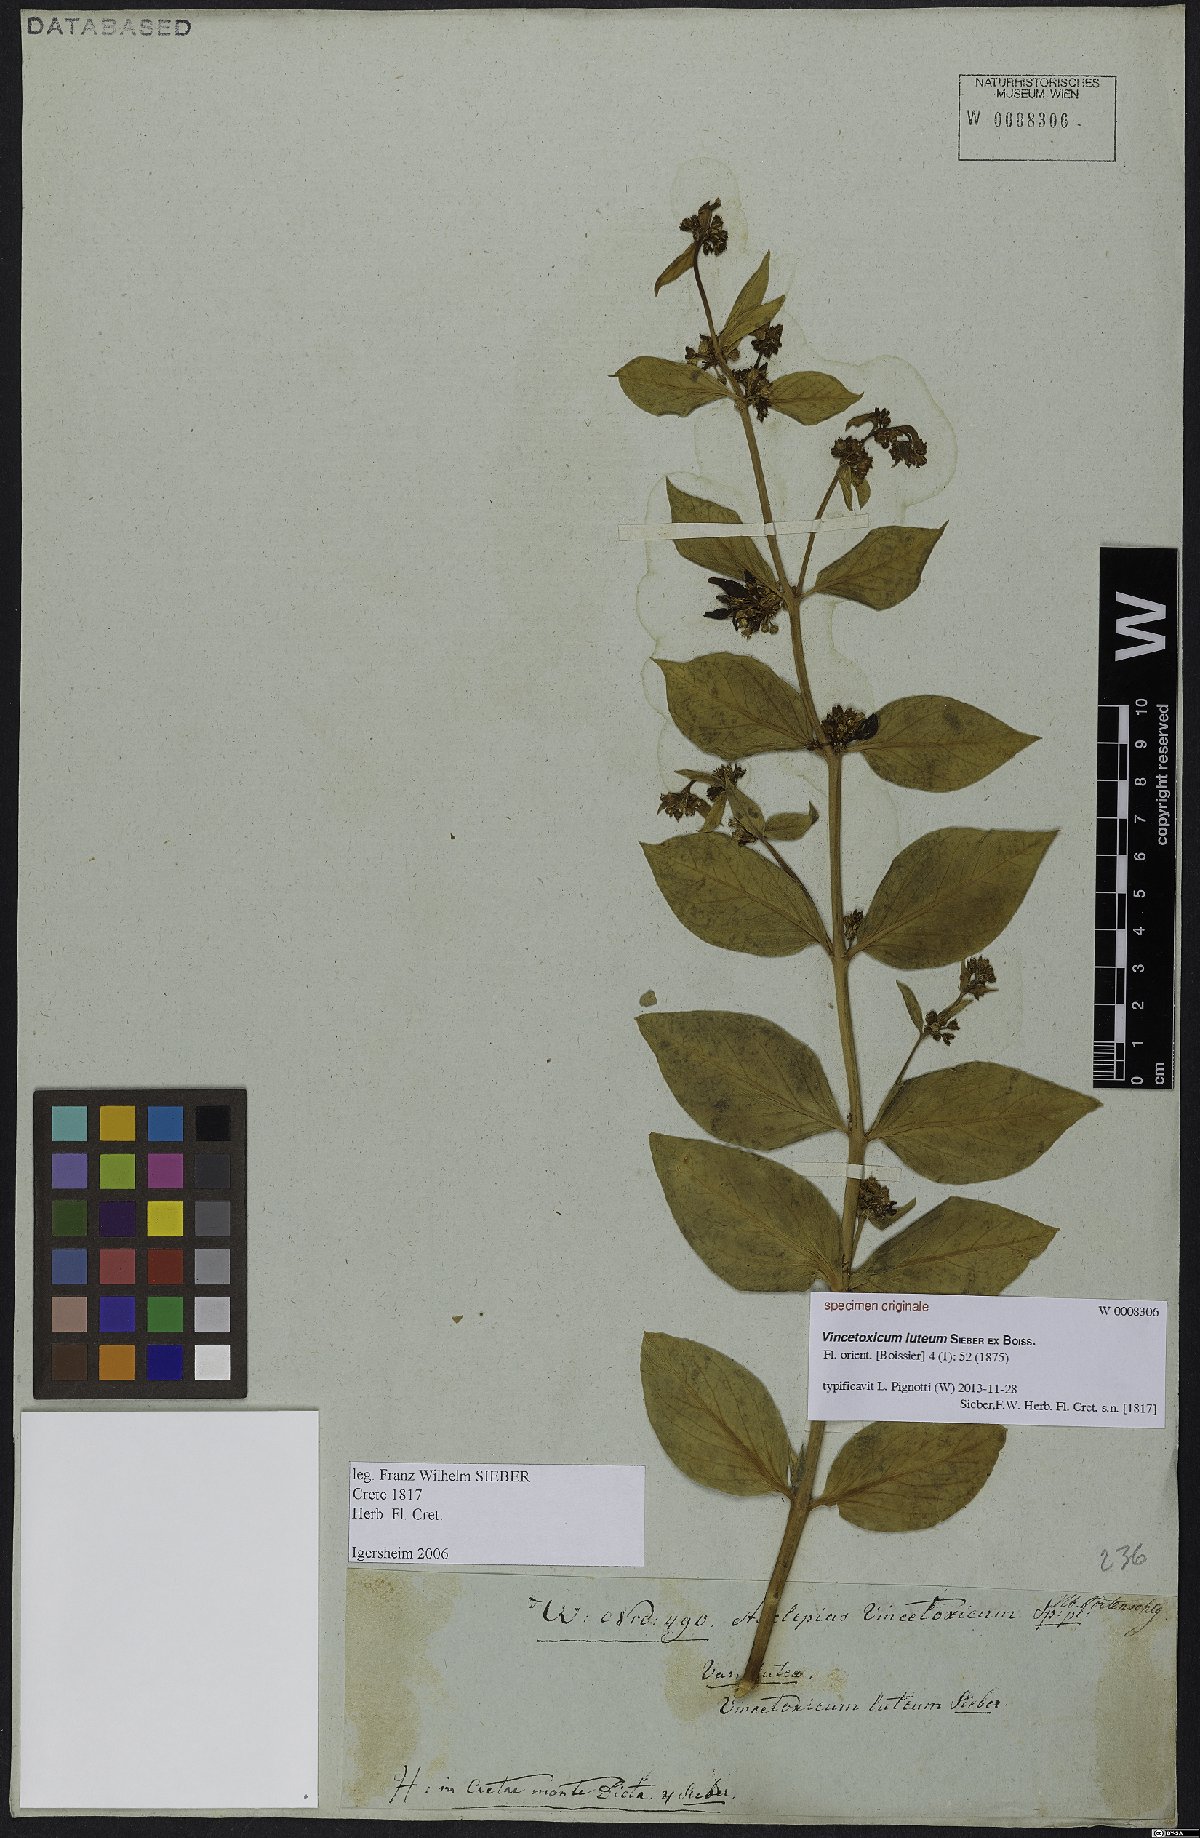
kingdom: Plantae
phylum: Tracheophyta
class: Magnoliopsida
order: Gentianales
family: Apocynaceae
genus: Vincetoxicum
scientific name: Vincetoxicum canescens
